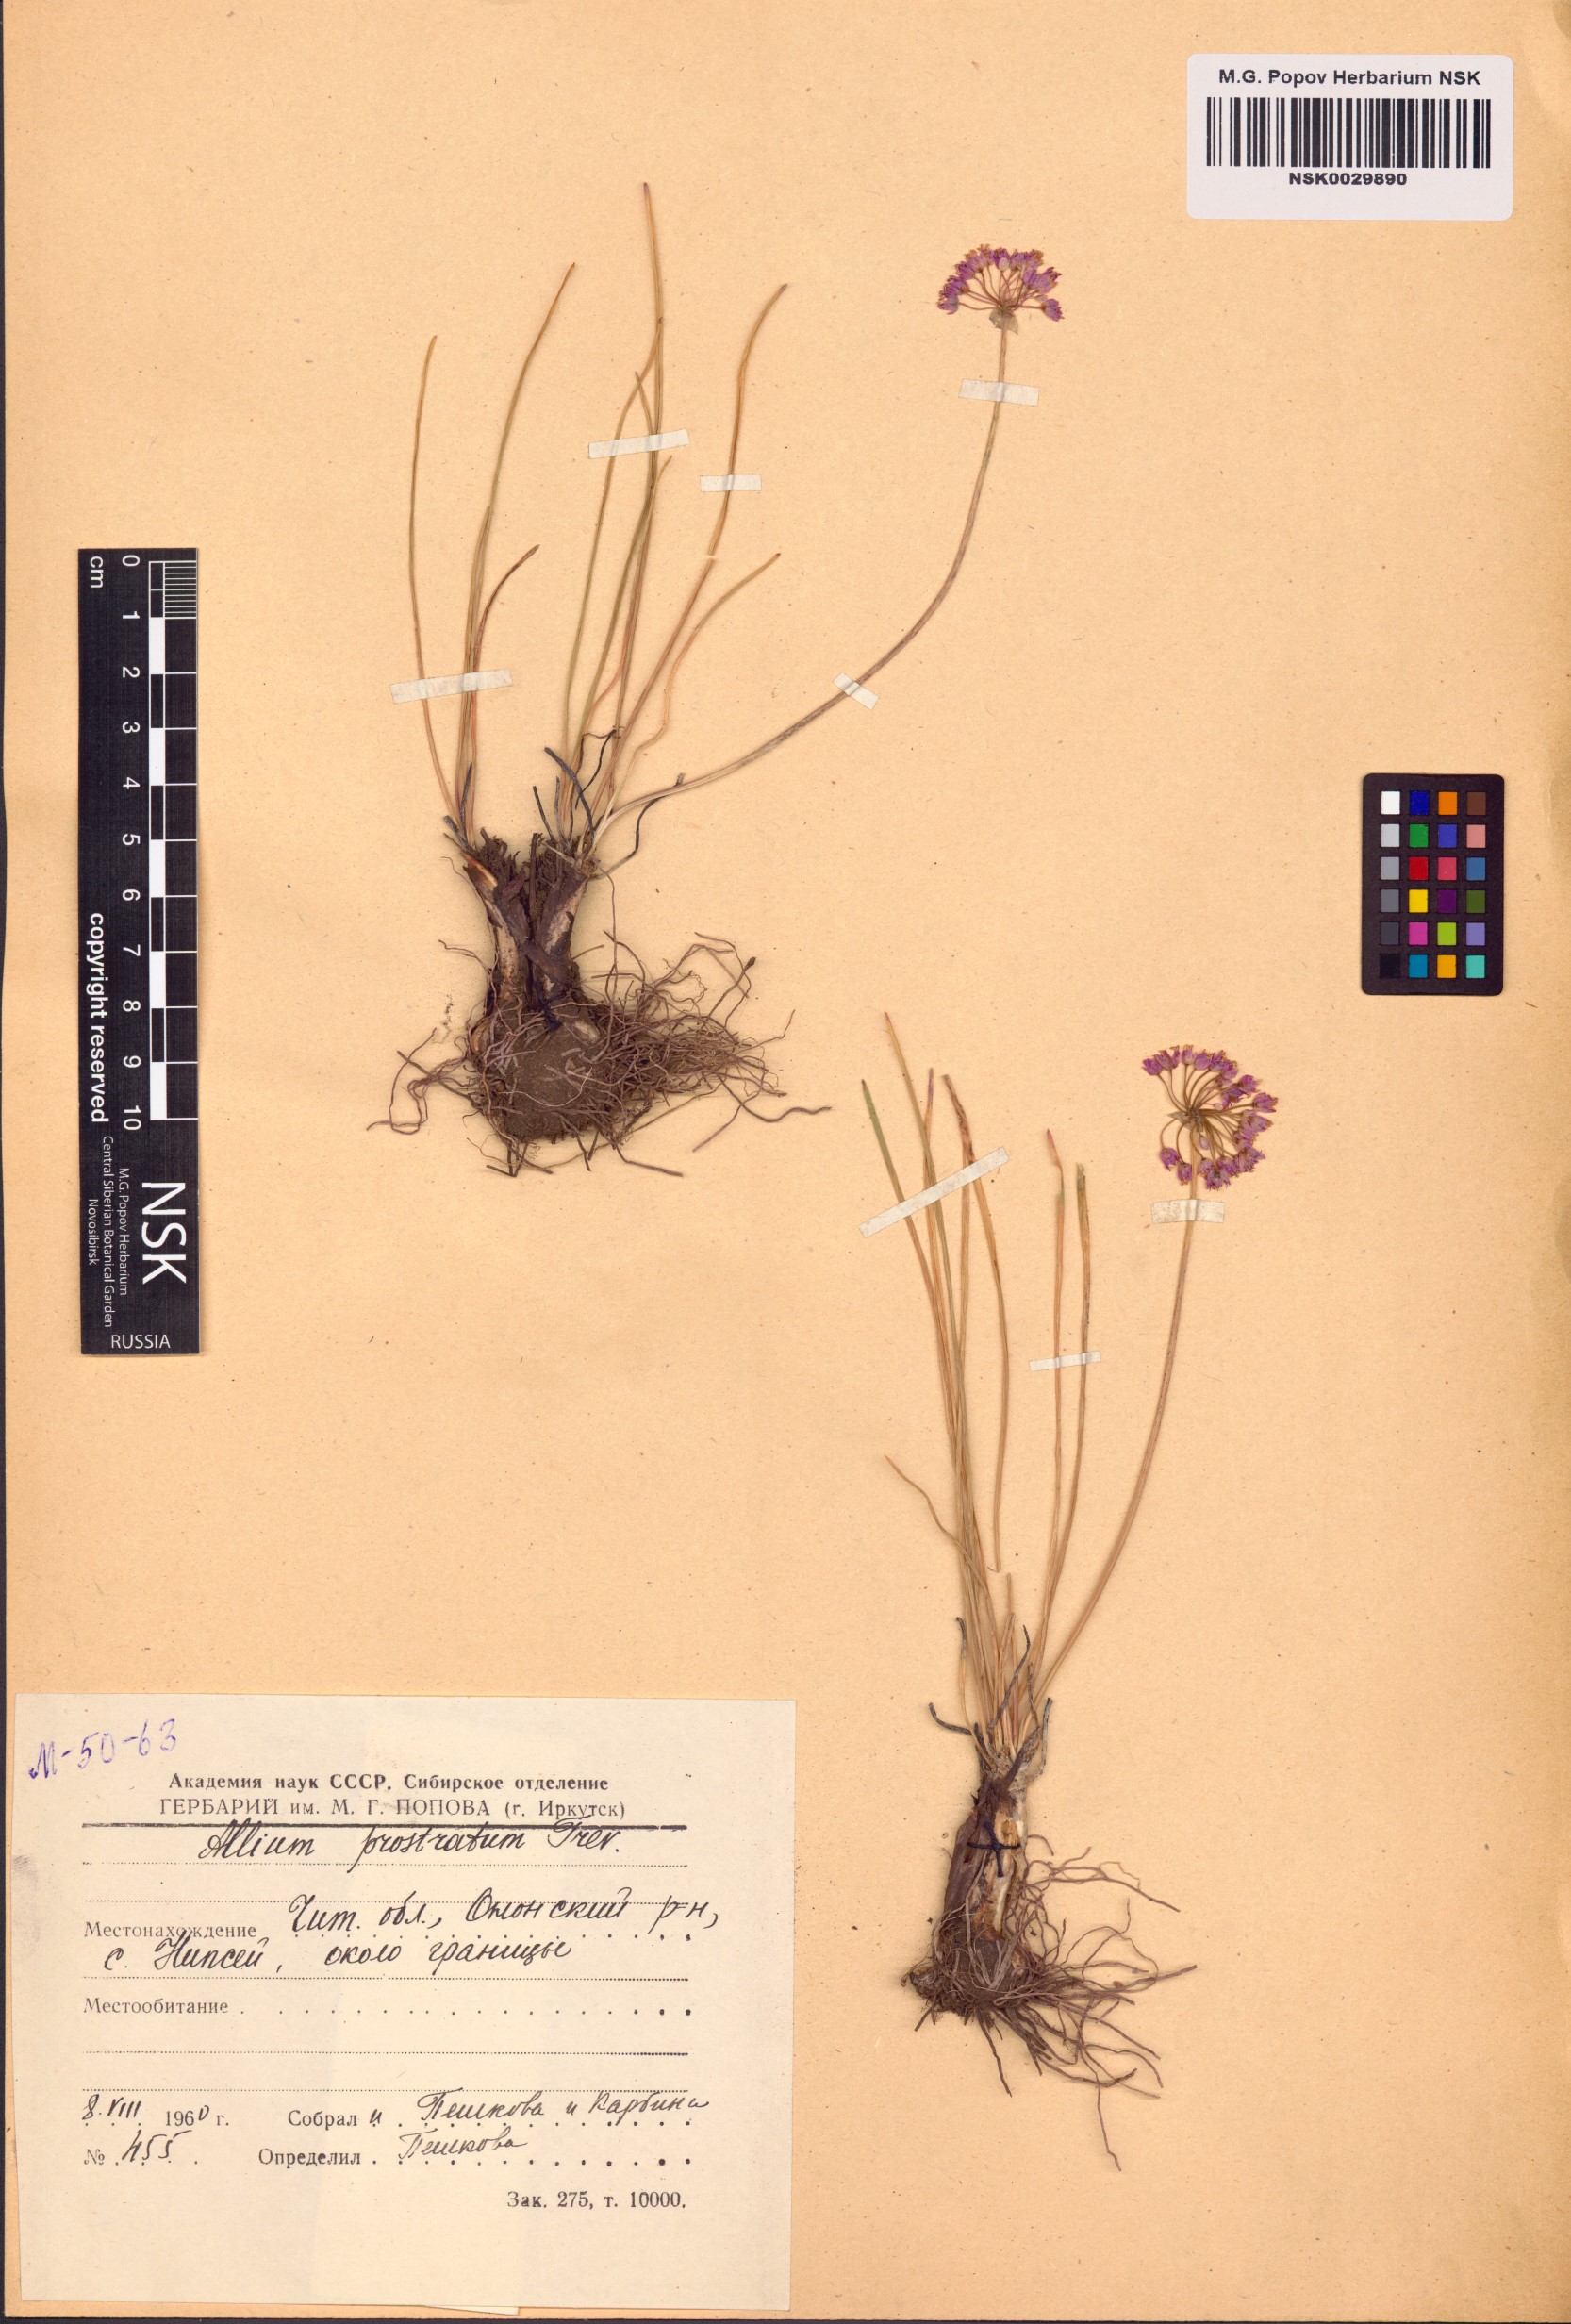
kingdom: Plantae
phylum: Tracheophyta
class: Liliopsida
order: Asparagales
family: Amaryllidaceae
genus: Allium
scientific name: Allium prostratum
